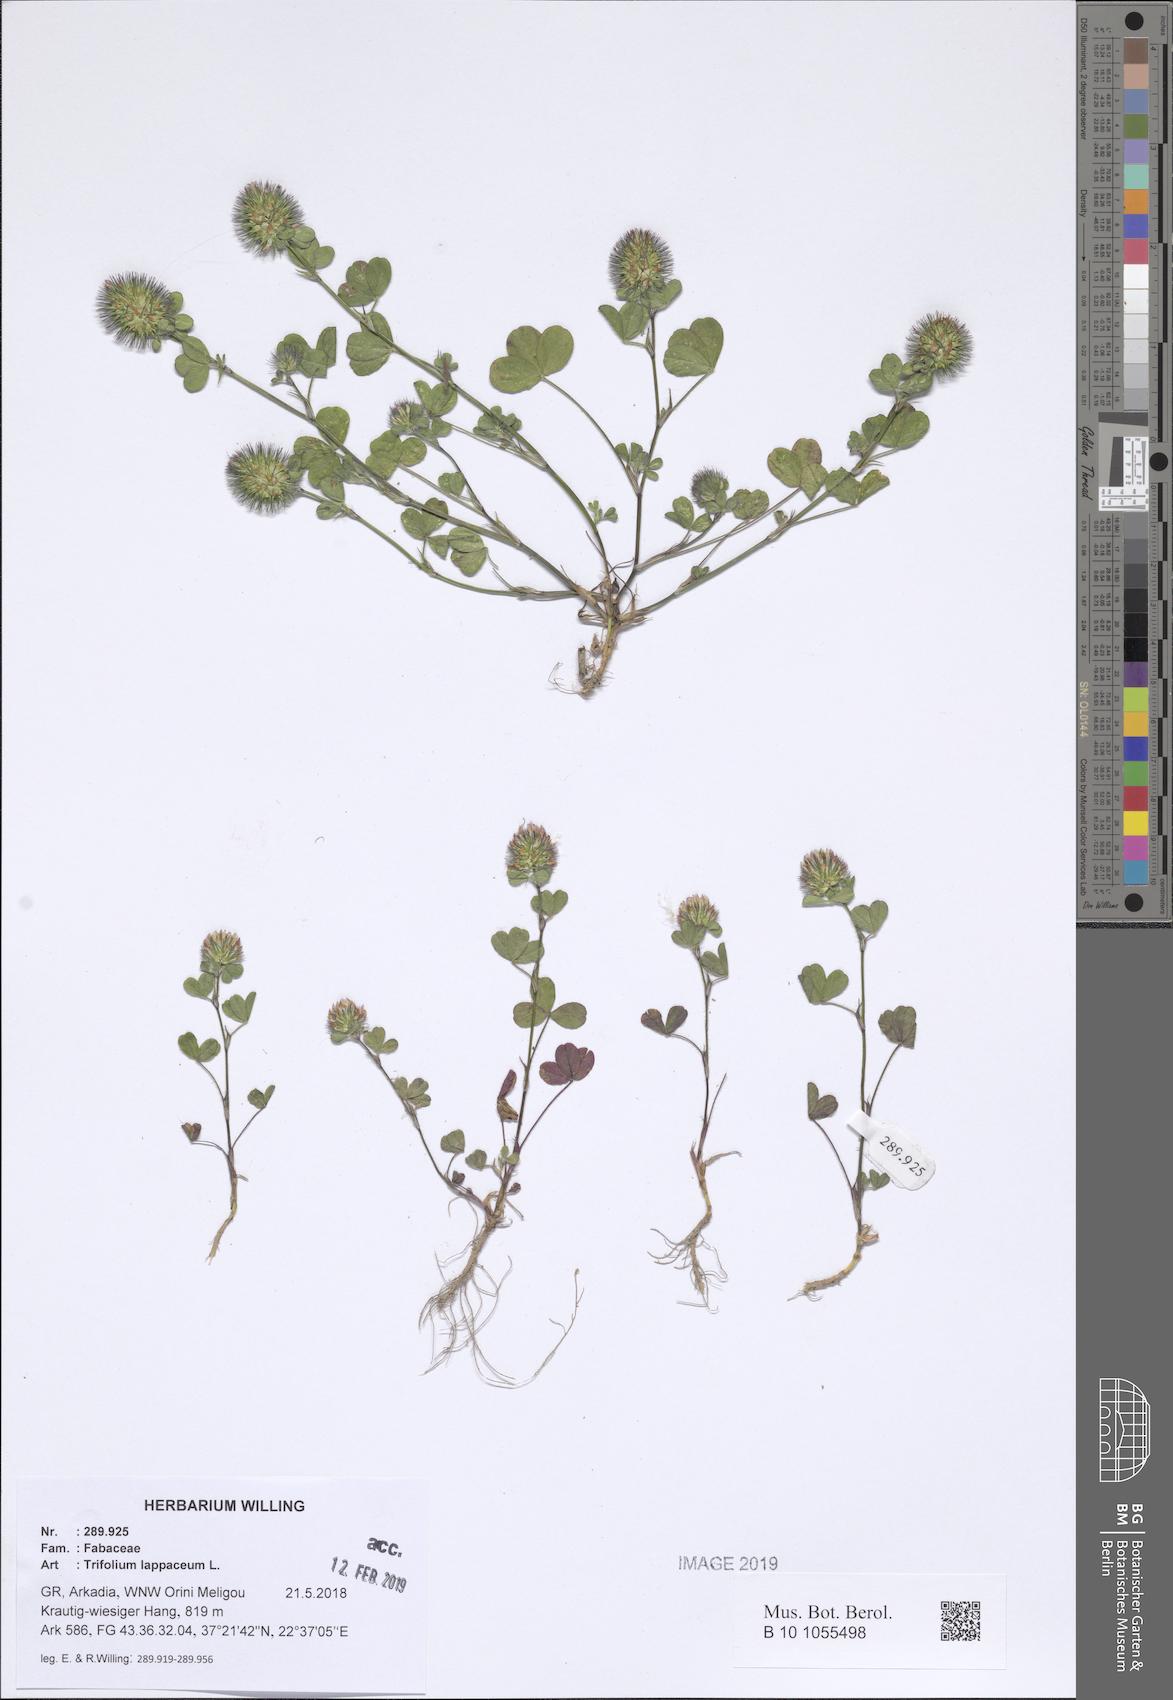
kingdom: Plantae
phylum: Tracheophyta
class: Magnoliopsida
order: Fabales
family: Fabaceae
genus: Trifolium
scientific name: Trifolium lappaceum
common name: Bur clover
